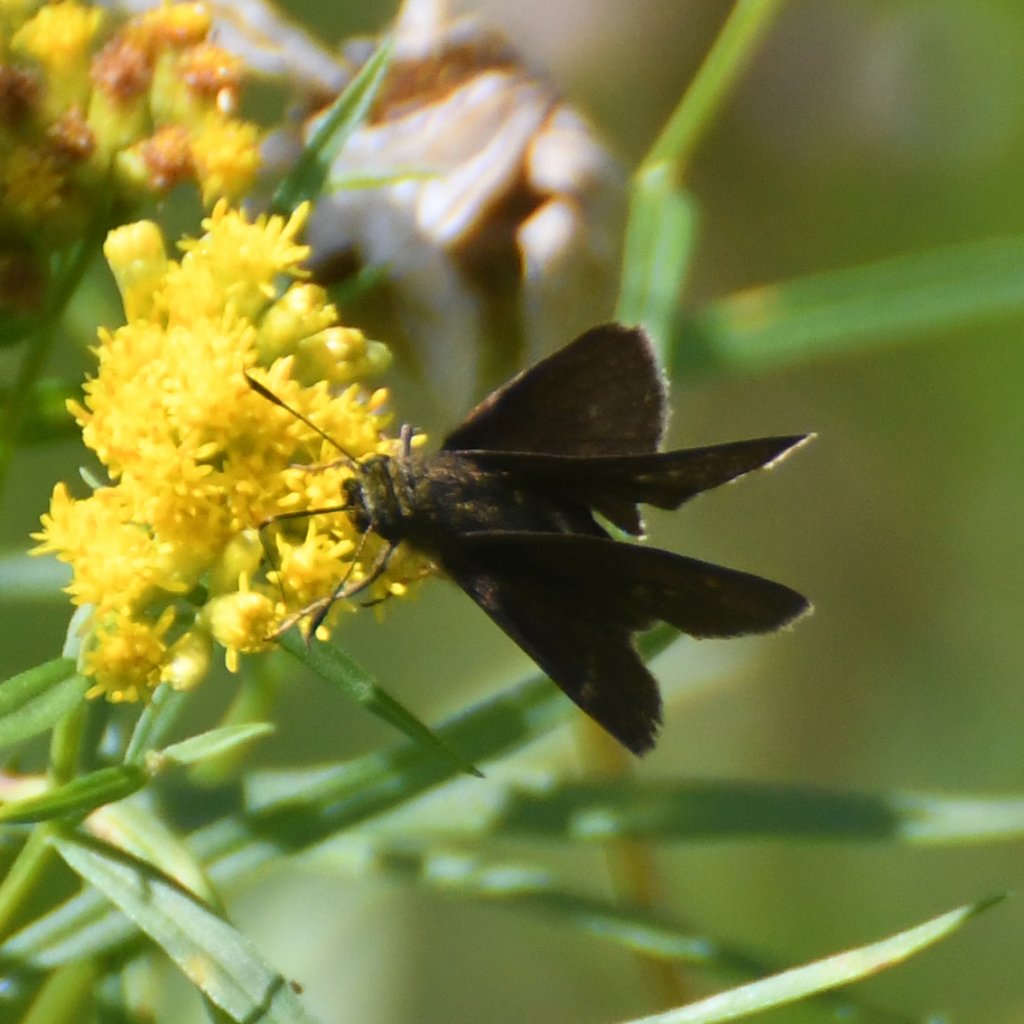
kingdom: Animalia
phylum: Arthropoda
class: Insecta
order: Lepidoptera
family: Hesperiidae
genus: Euphyes
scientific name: Euphyes vestris
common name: Dun Skipper
